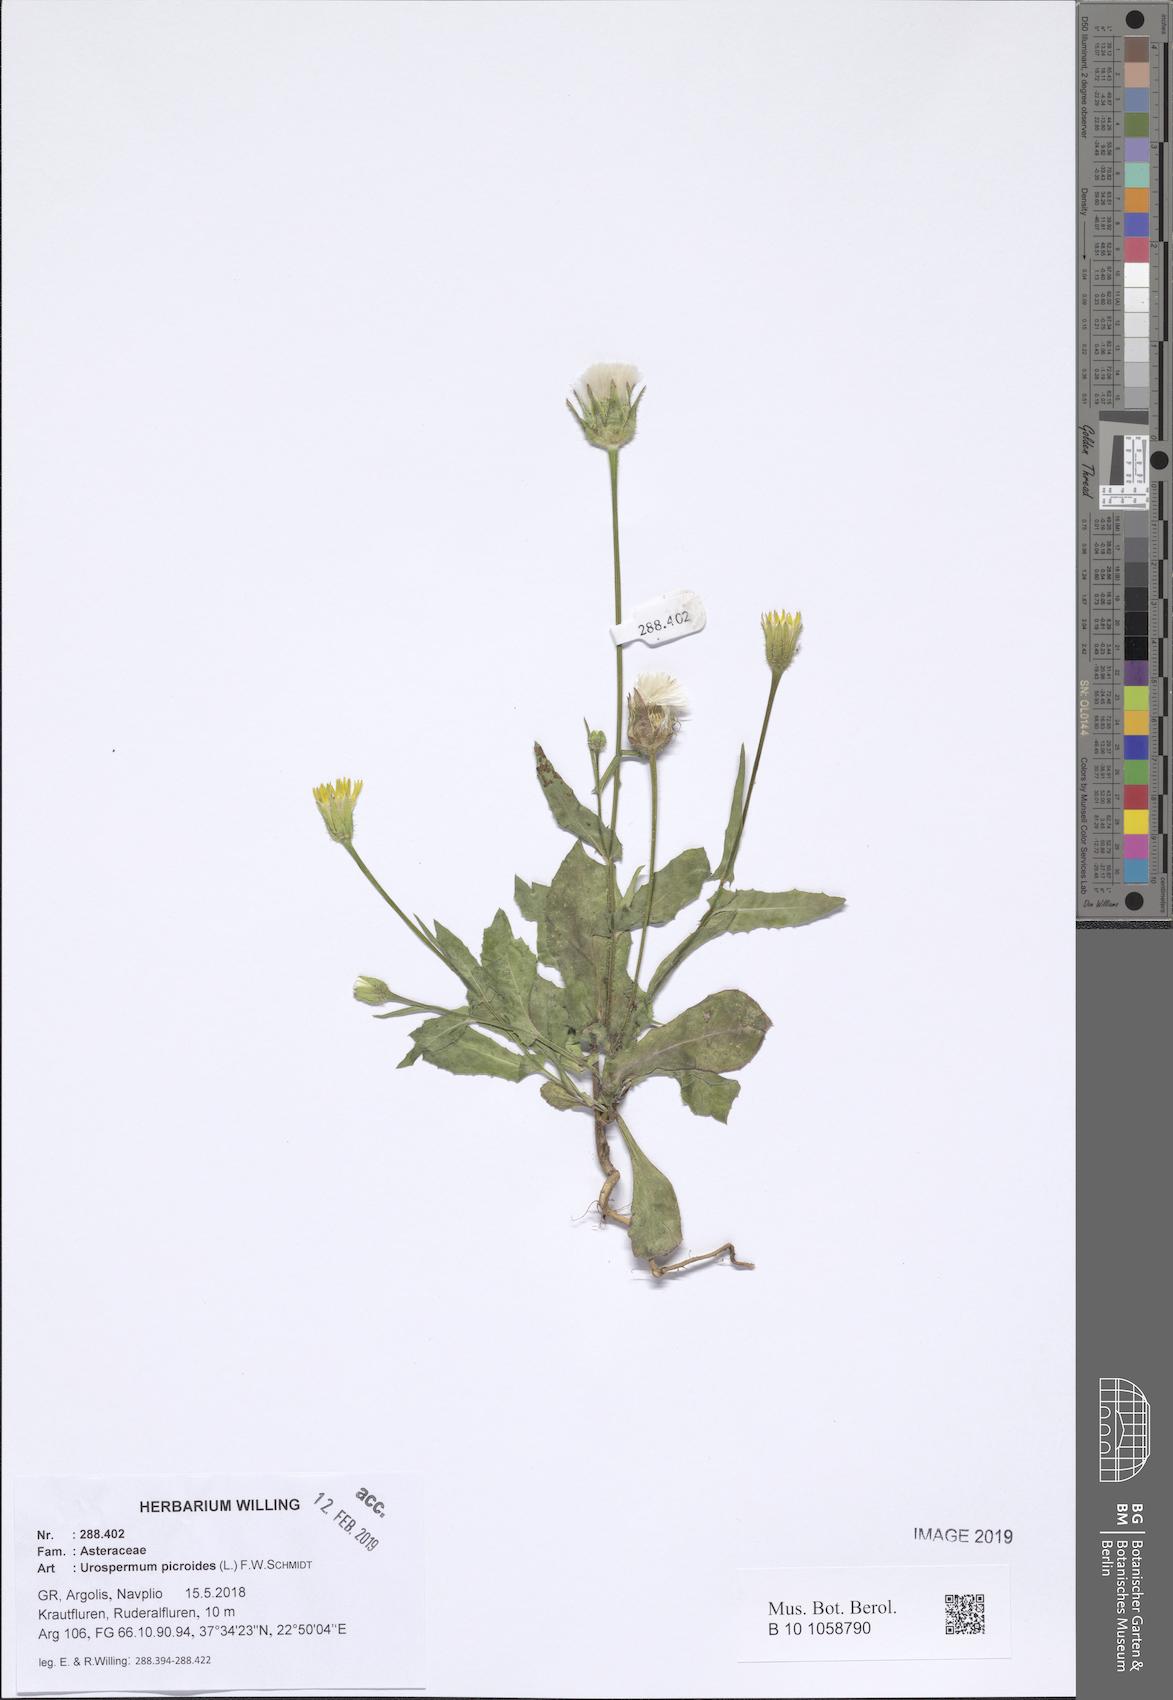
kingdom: Plantae
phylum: Tracheophyta
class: Magnoliopsida
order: Asterales
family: Asteraceae
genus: Urospermum
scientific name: Urospermum picroides
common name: False hawkbit
